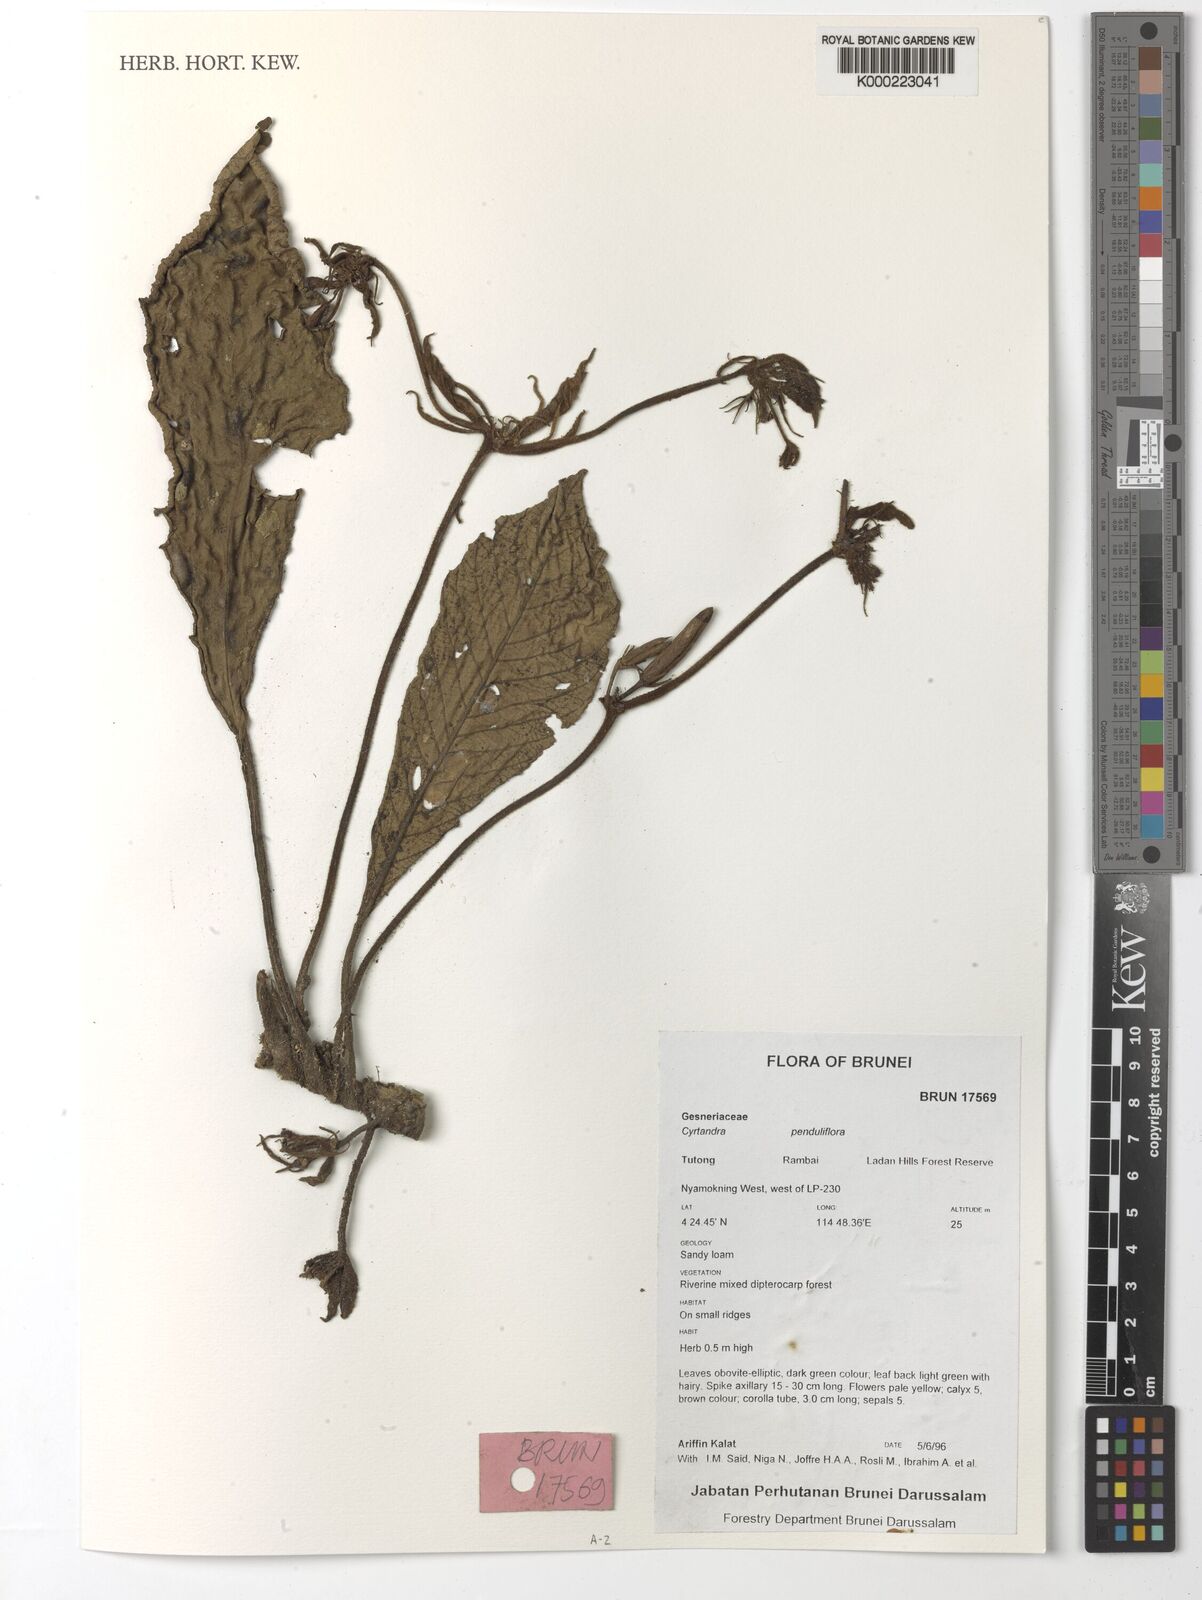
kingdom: Plantae
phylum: Tracheophyta
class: Magnoliopsida
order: Lamiales
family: Gesneriaceae
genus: Cyrtandra
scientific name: Cyrtandra penduliflora
